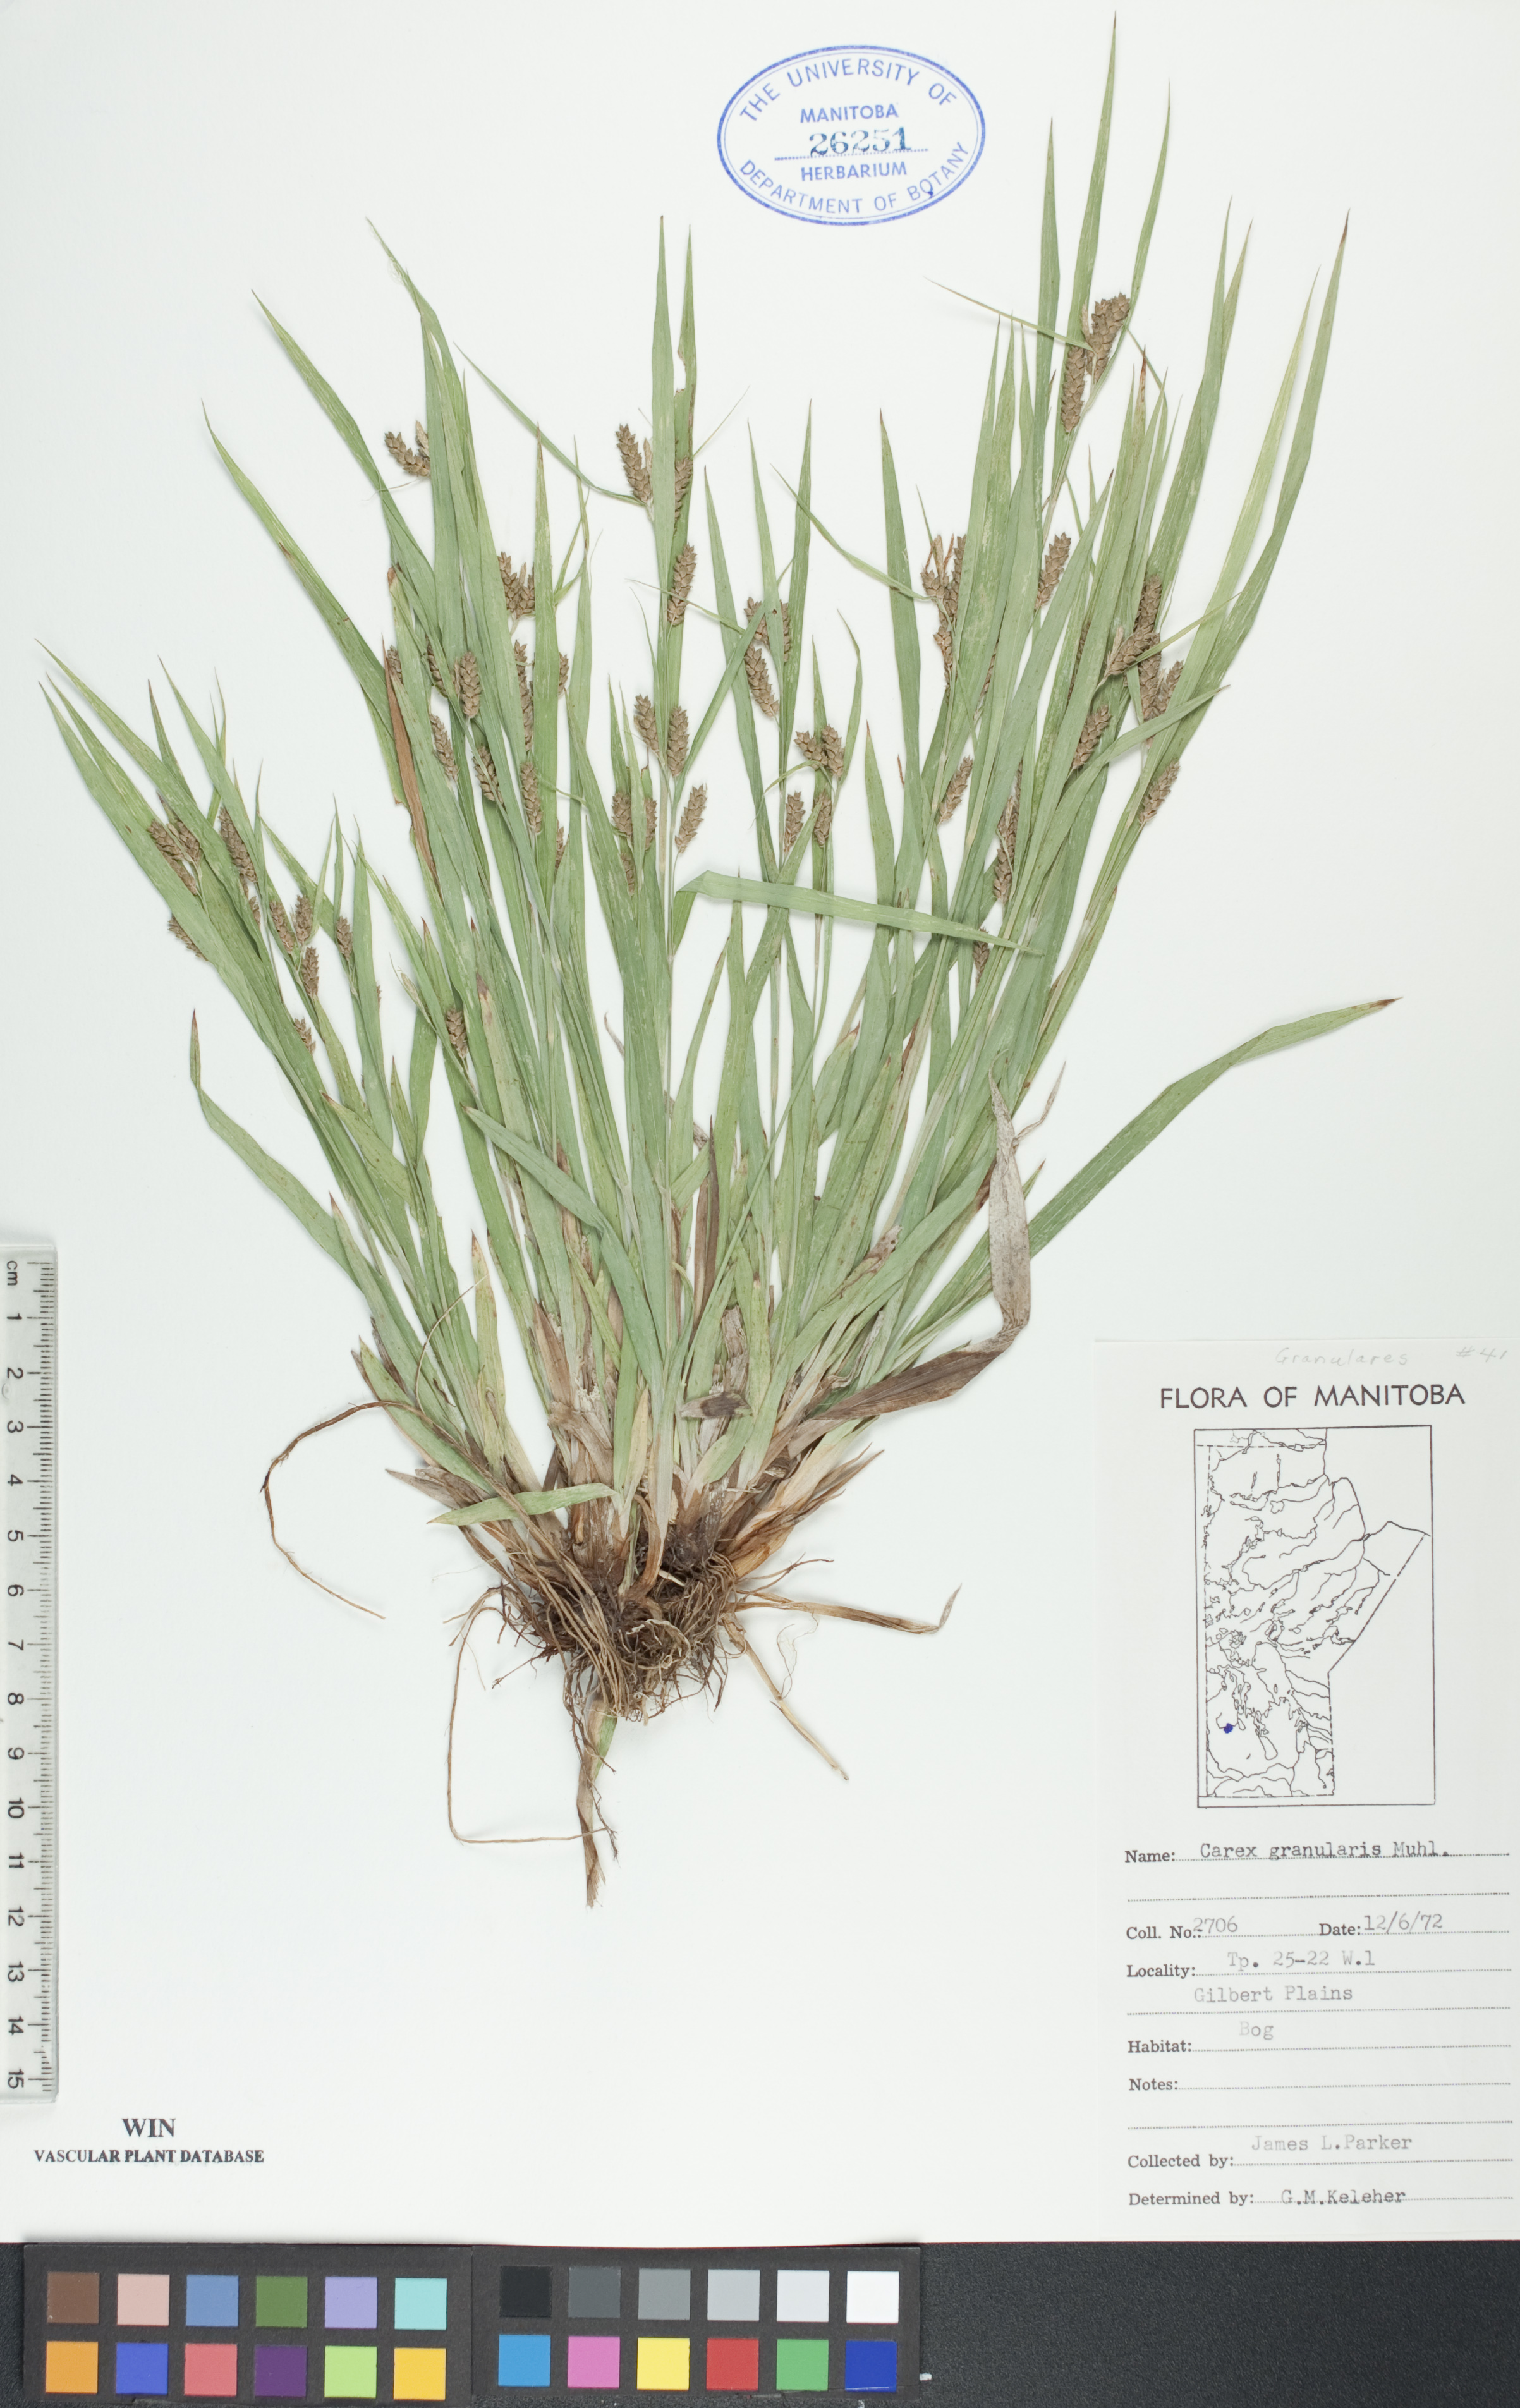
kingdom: Plantae
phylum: Tracheophyta
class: Liliopsida
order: Poales
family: Cyperaceae
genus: Carex
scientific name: Carex granularis
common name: Granular sedge
